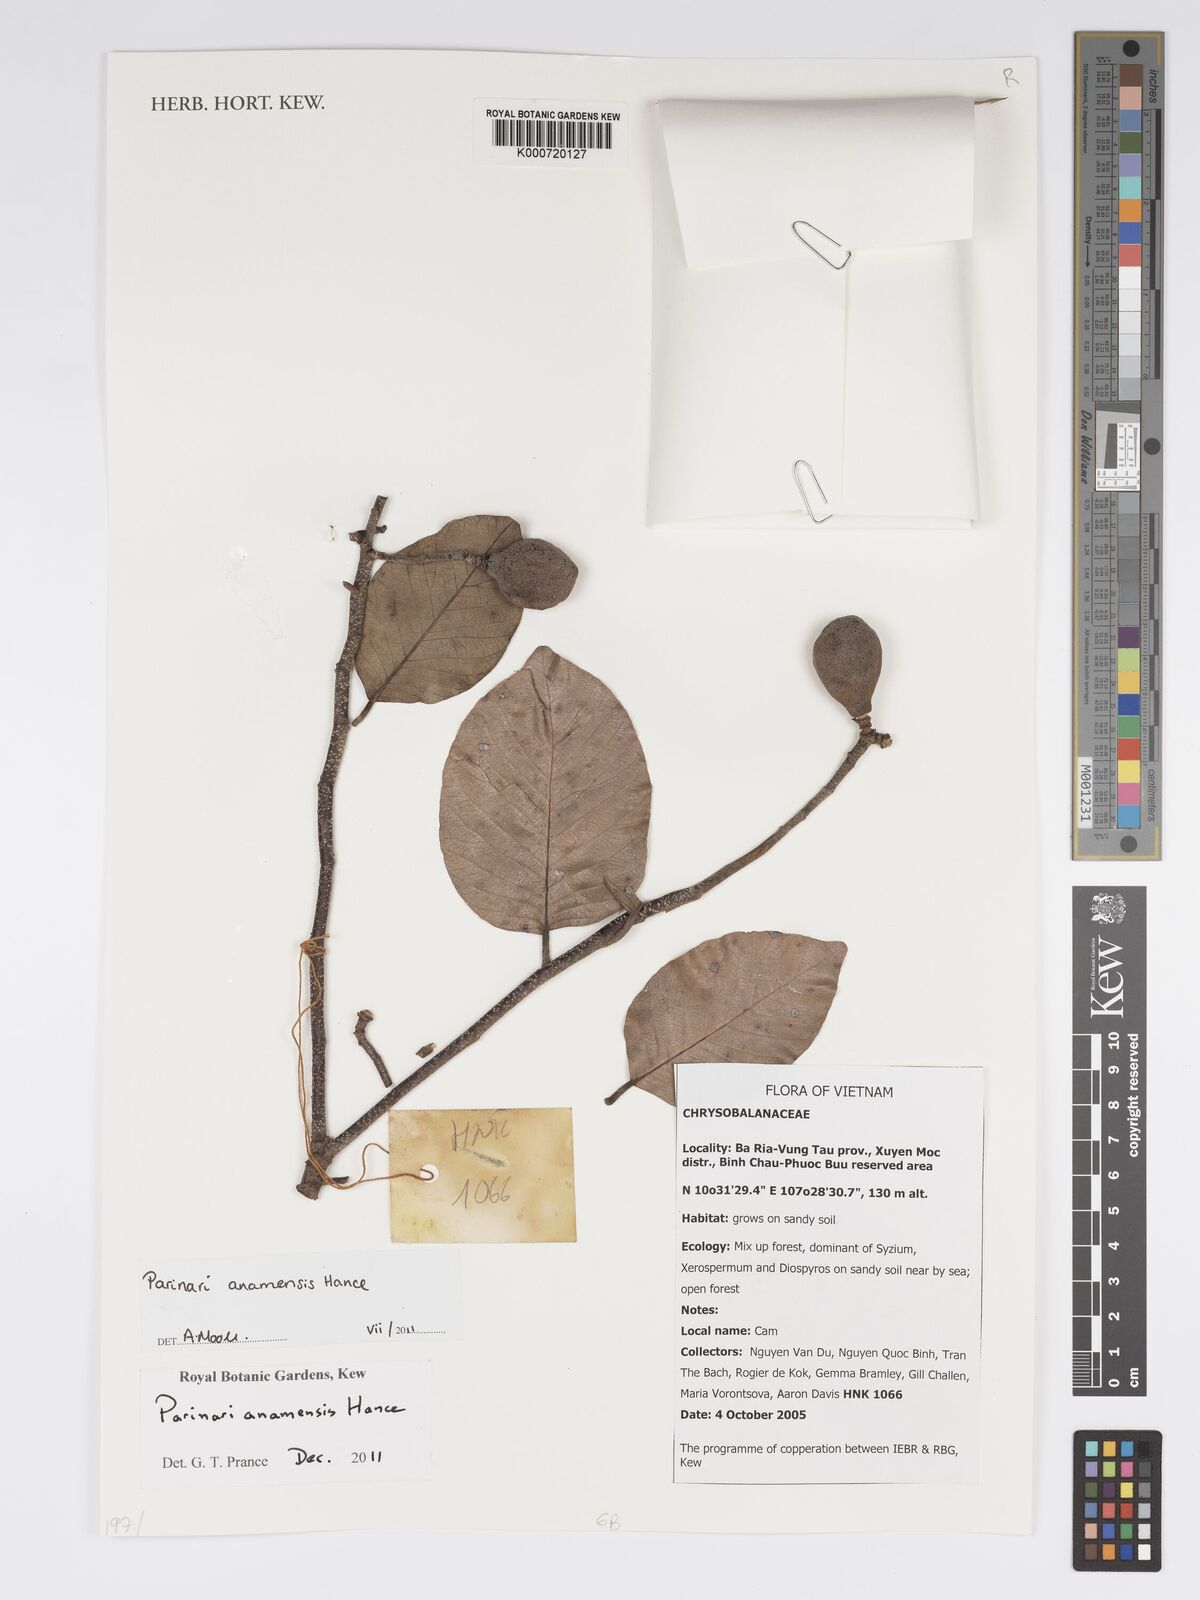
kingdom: Plantae
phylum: Tracheophyta
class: Magnoliopsida
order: Malpighiales
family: Chrysobalanaceae
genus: Parinari
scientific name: Parinari anamensis
